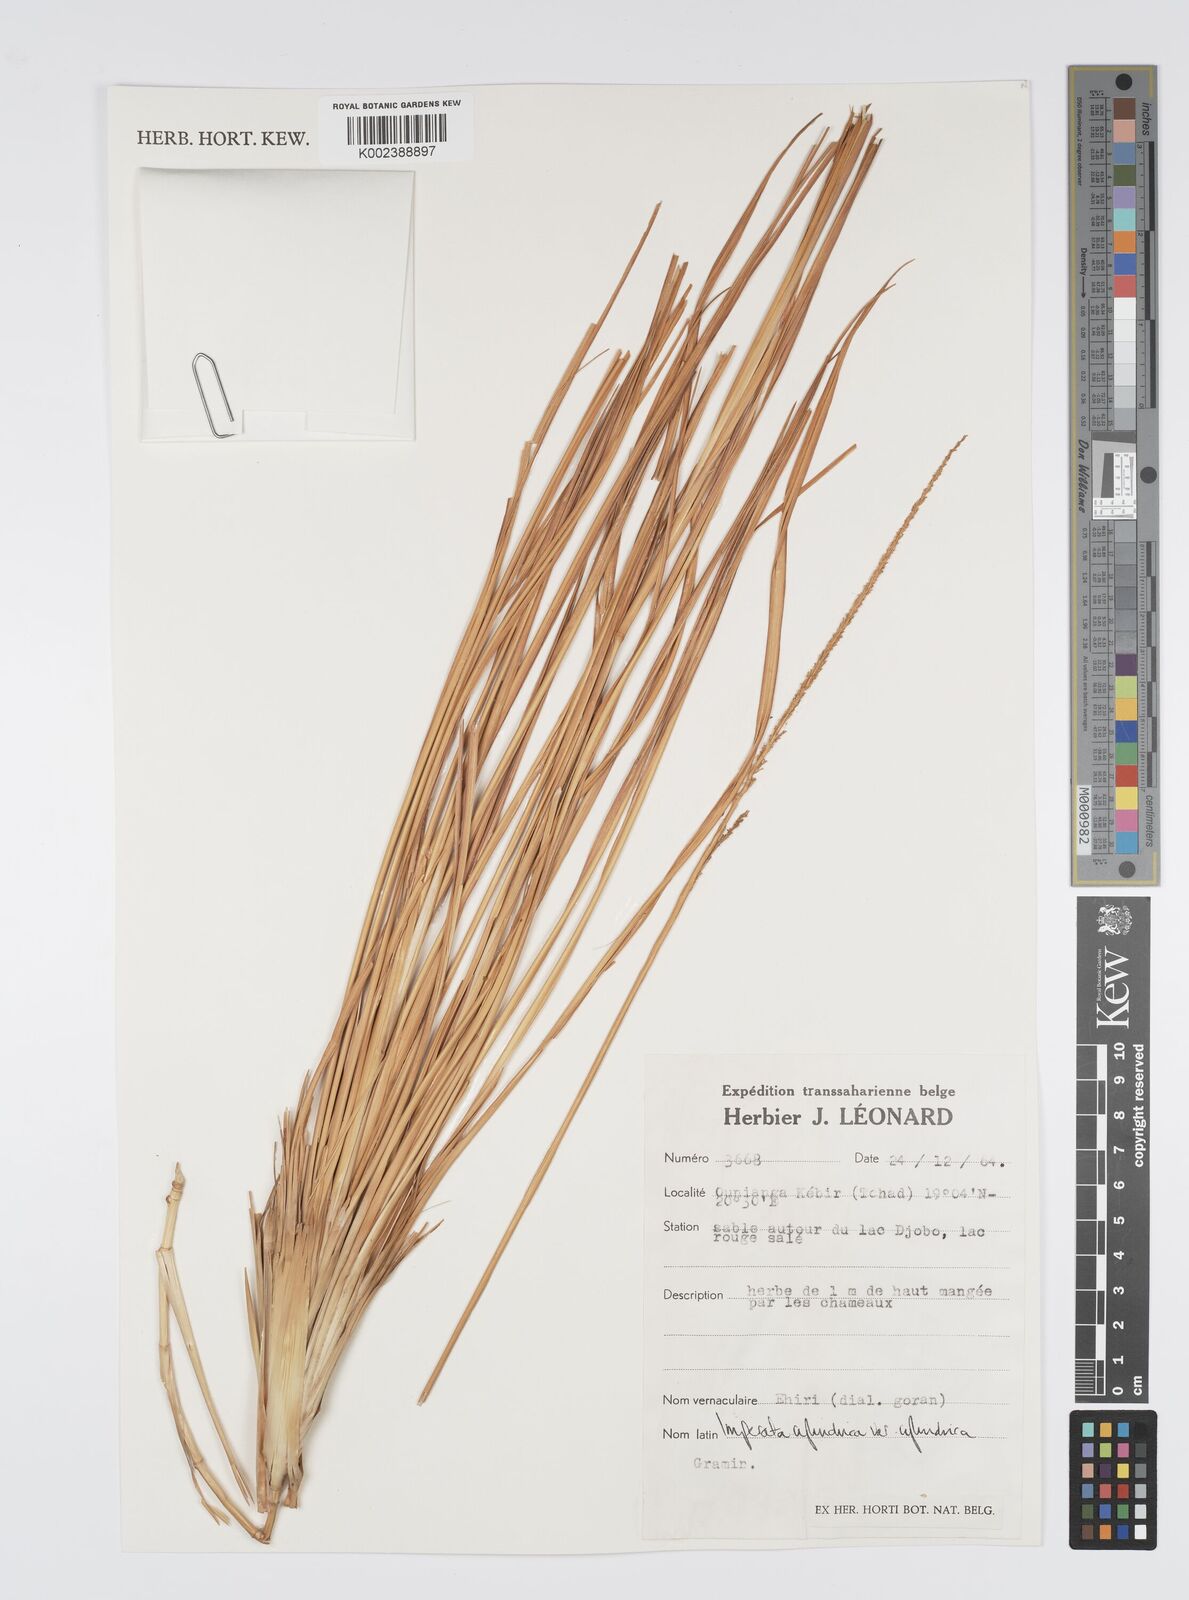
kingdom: Plantae
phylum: Tracheophyta
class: Liliopsida
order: Poales
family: Poaceae
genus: Imperata
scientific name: Imperata cylindrica
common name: Cogongrass
